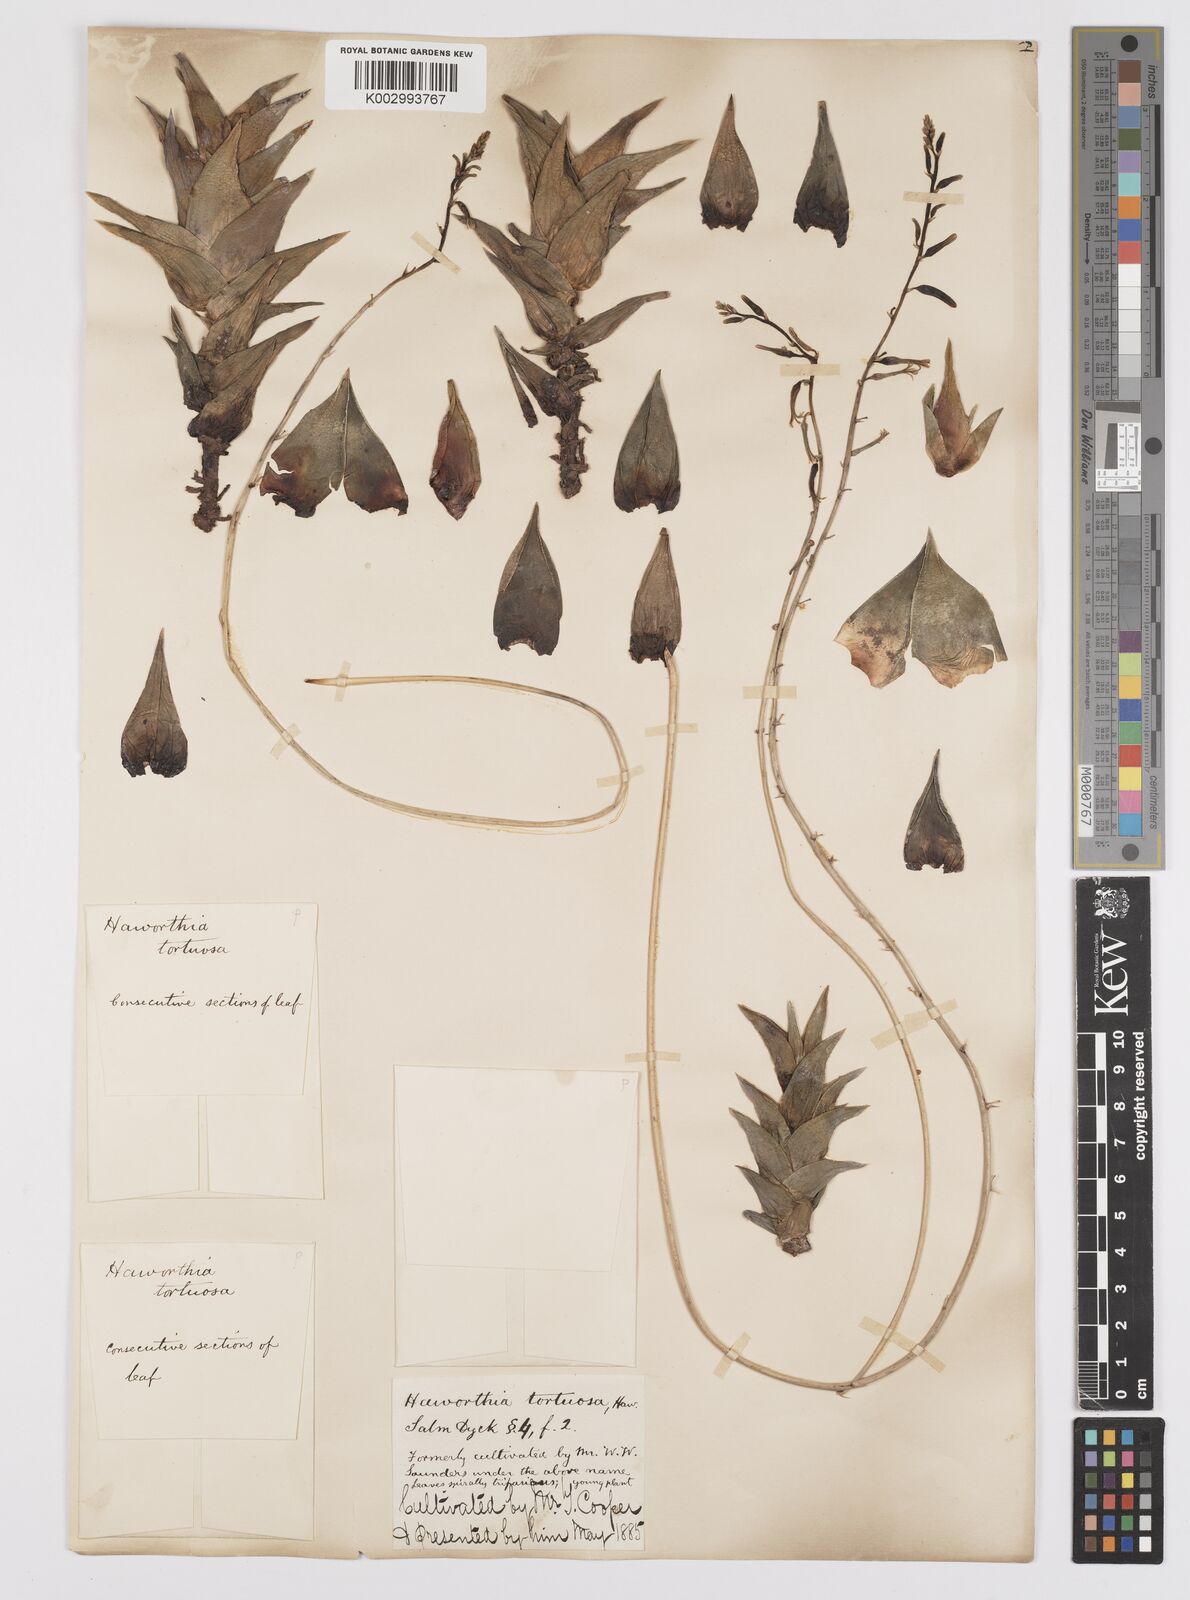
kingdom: Plantae
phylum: Tracheophyta
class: Liliopsida
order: Asparagales
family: Asphodelaceae
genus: Haworthiopsis
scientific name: Haworthiopsis tortuosa
